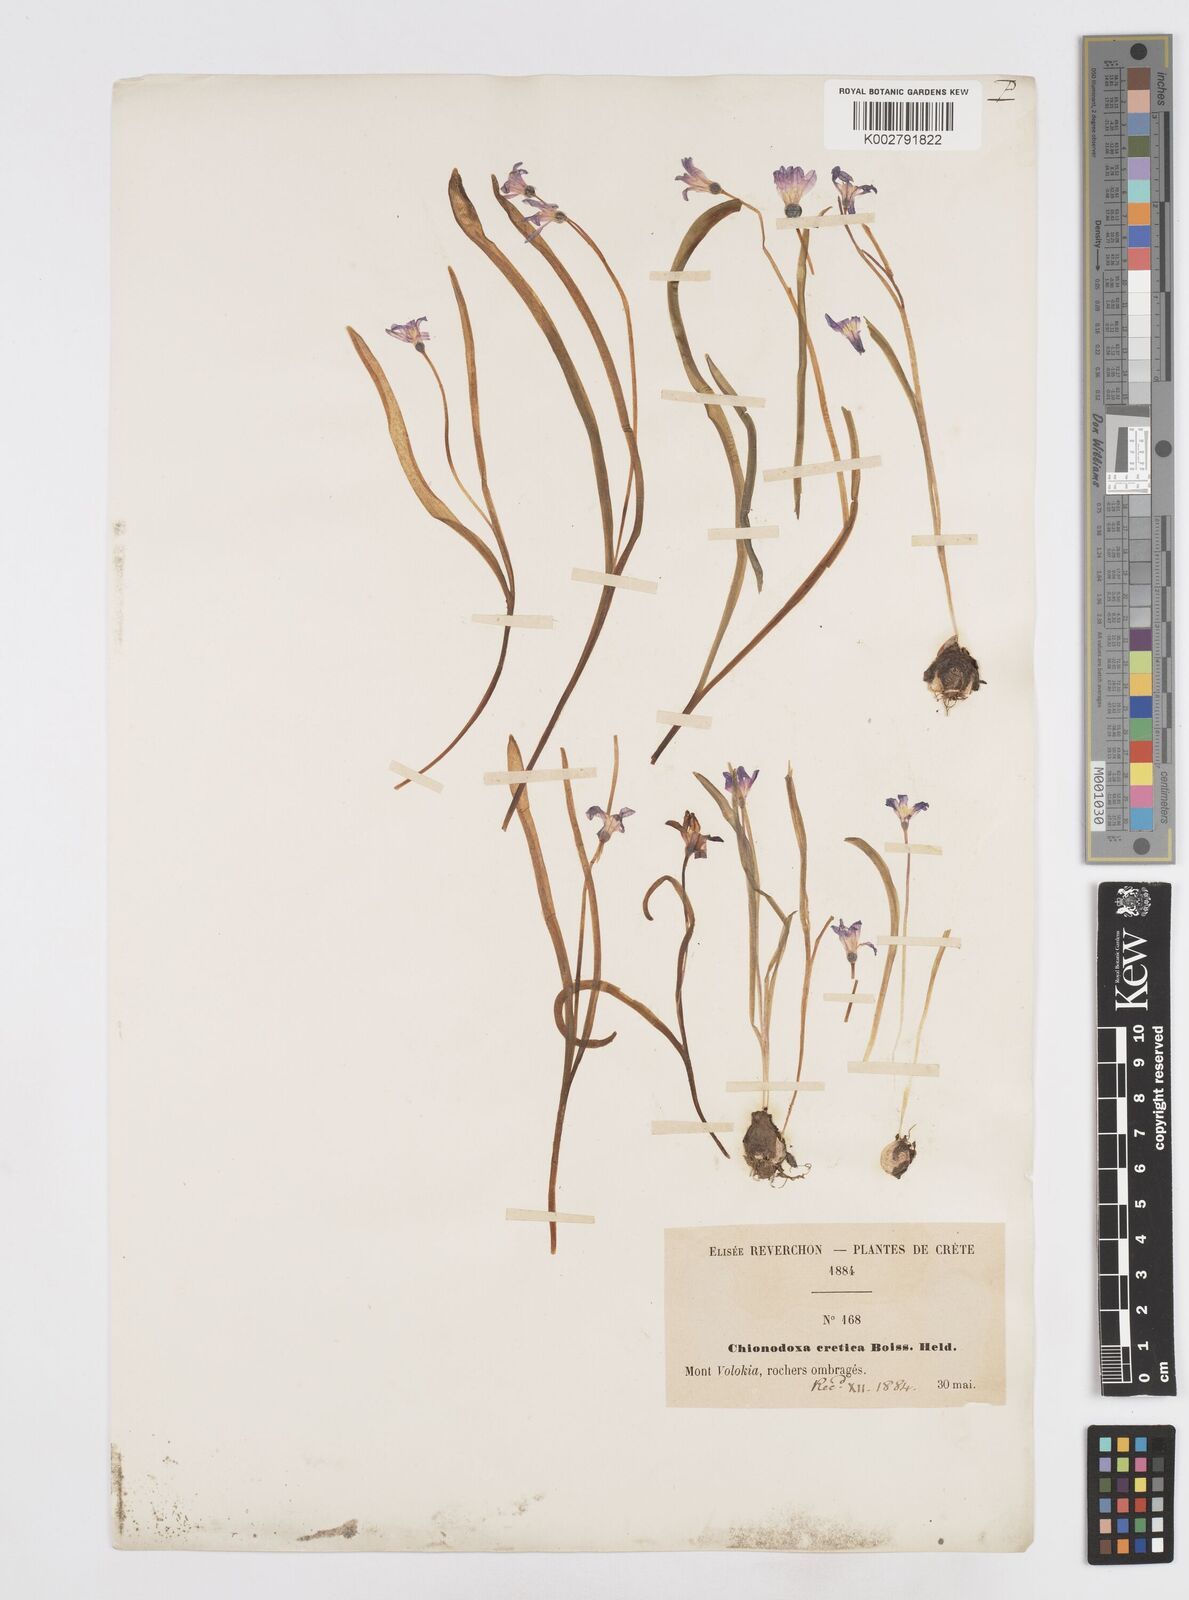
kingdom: Plantae
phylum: Tracheophyta
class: Liliopsida
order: Asparagales
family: Asparagaceae
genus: Scilla
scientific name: Scilla cretica
